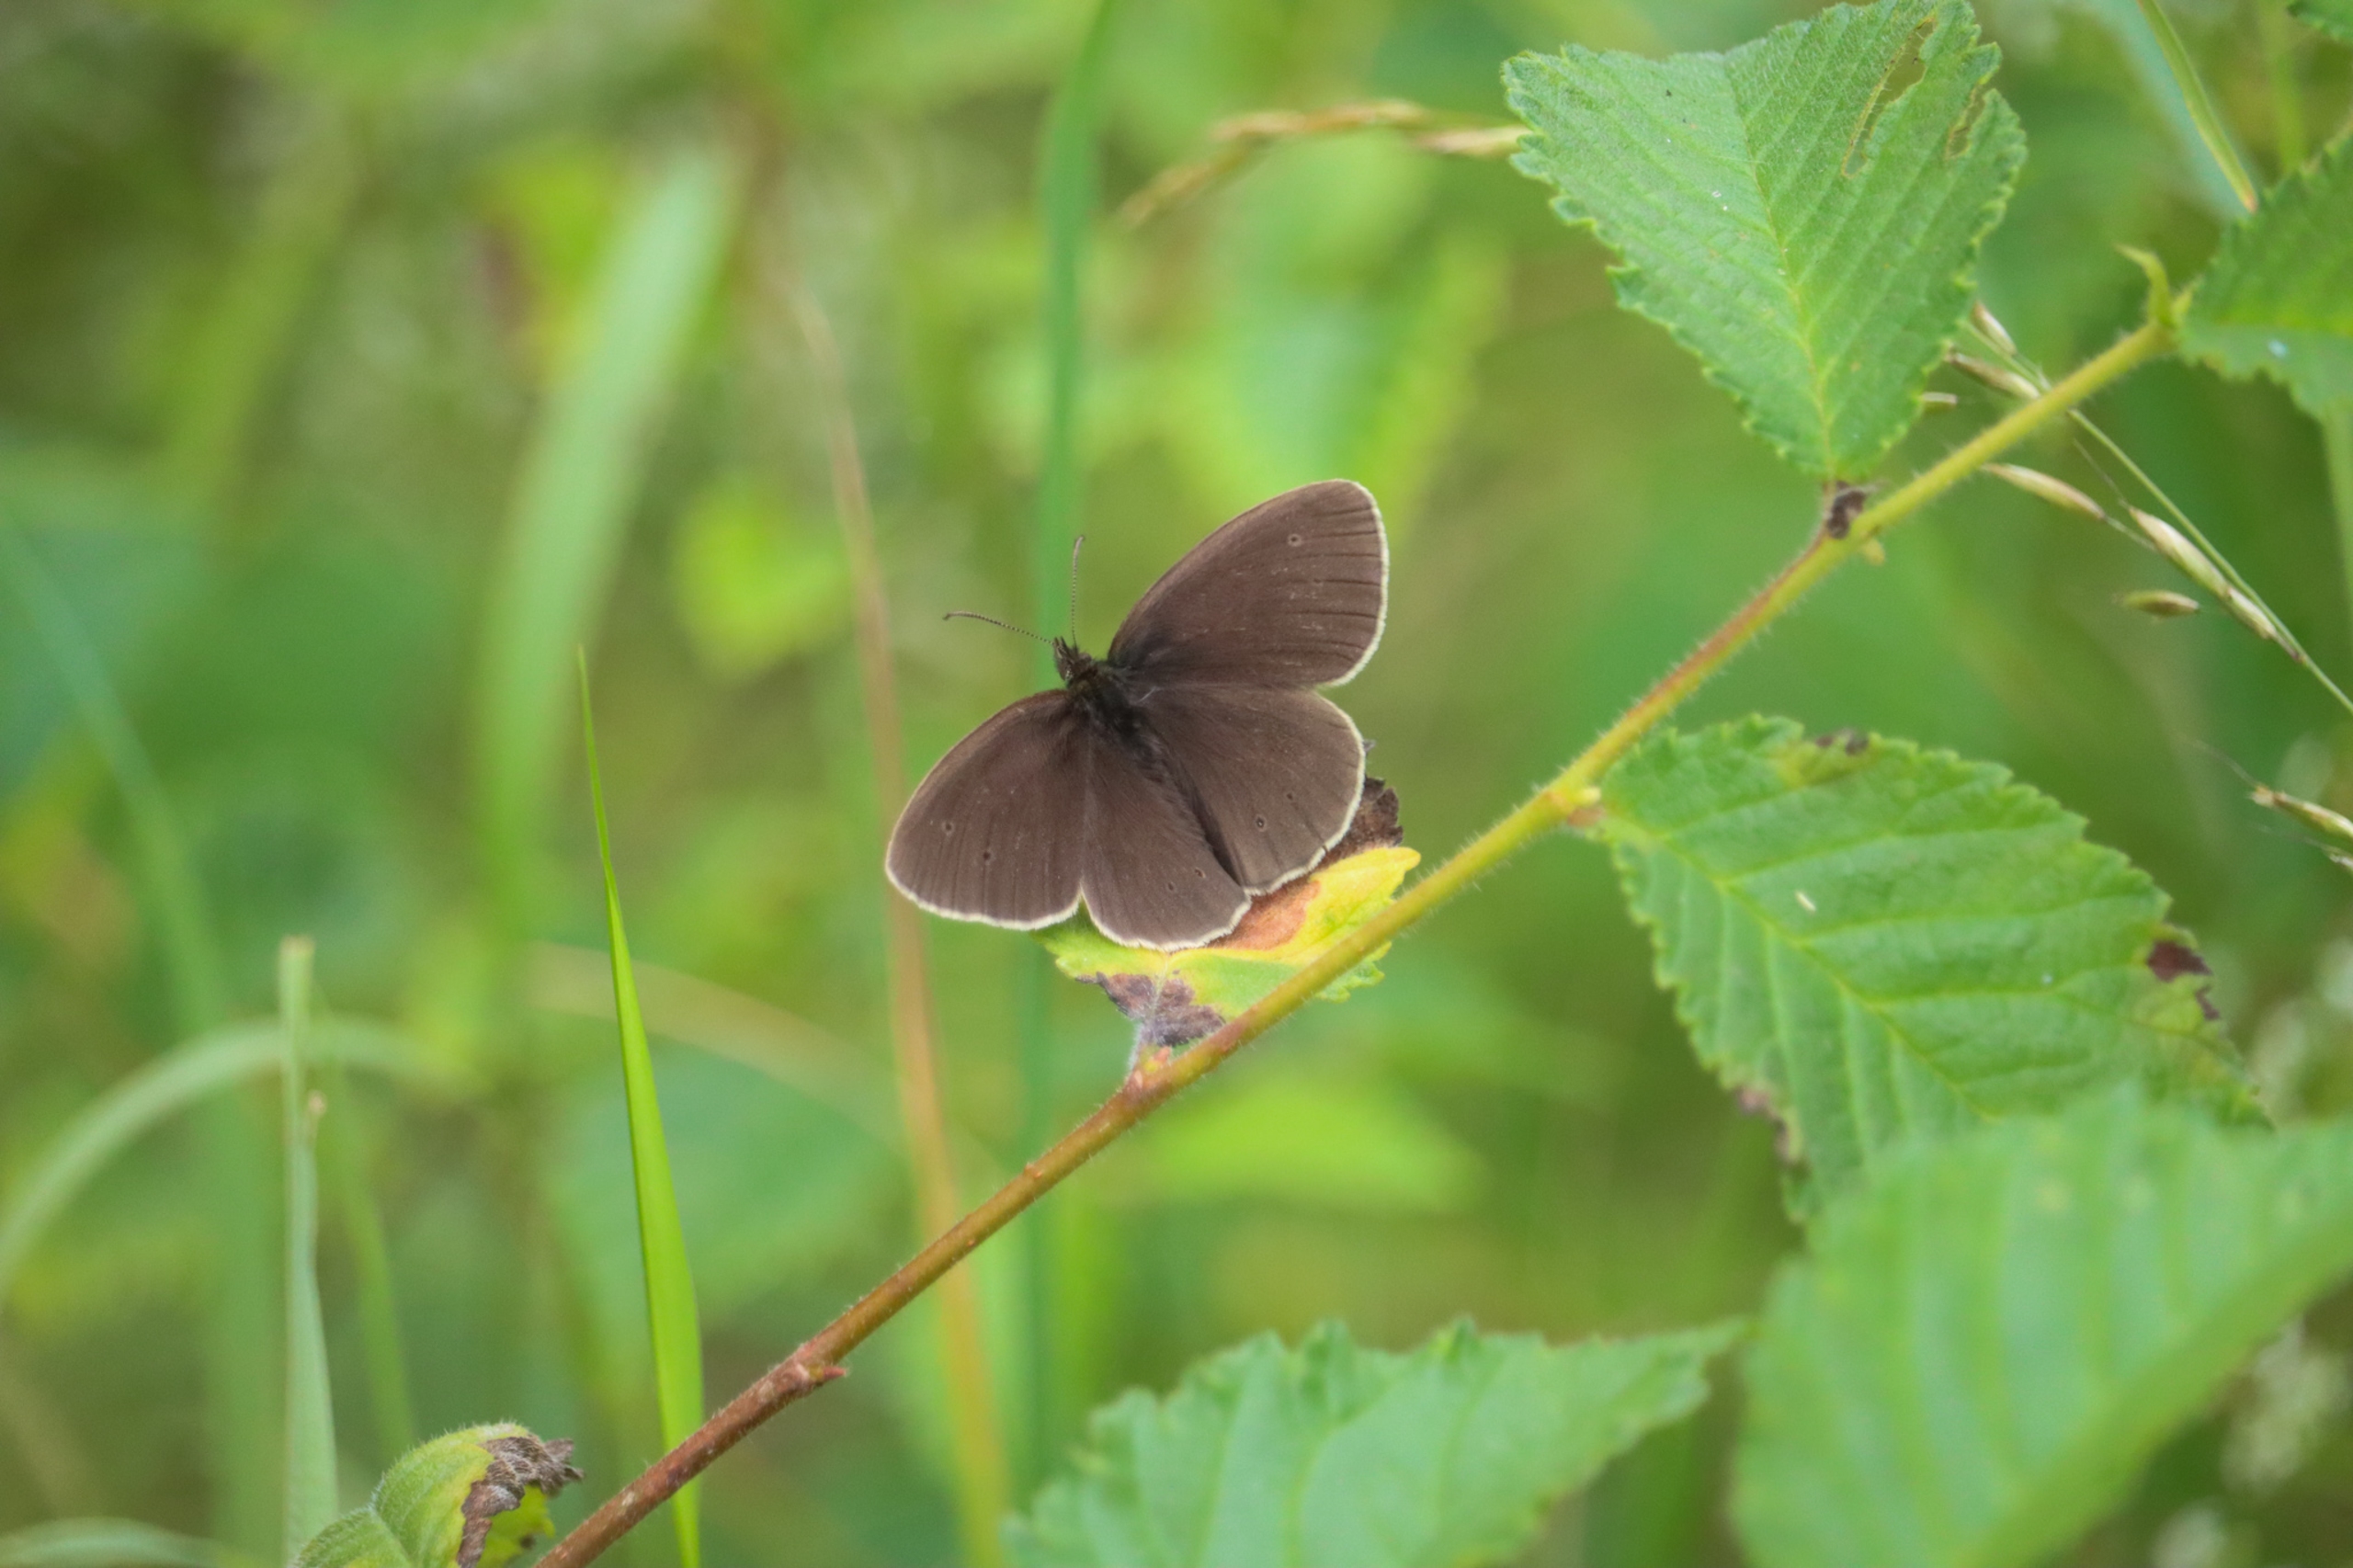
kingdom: Animalia
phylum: Arthropoda
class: Insecta
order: Lepidoptera
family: Nymphalidae
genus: Aphantopus
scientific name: Aphantopus hyperantus
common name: Engrandøje
